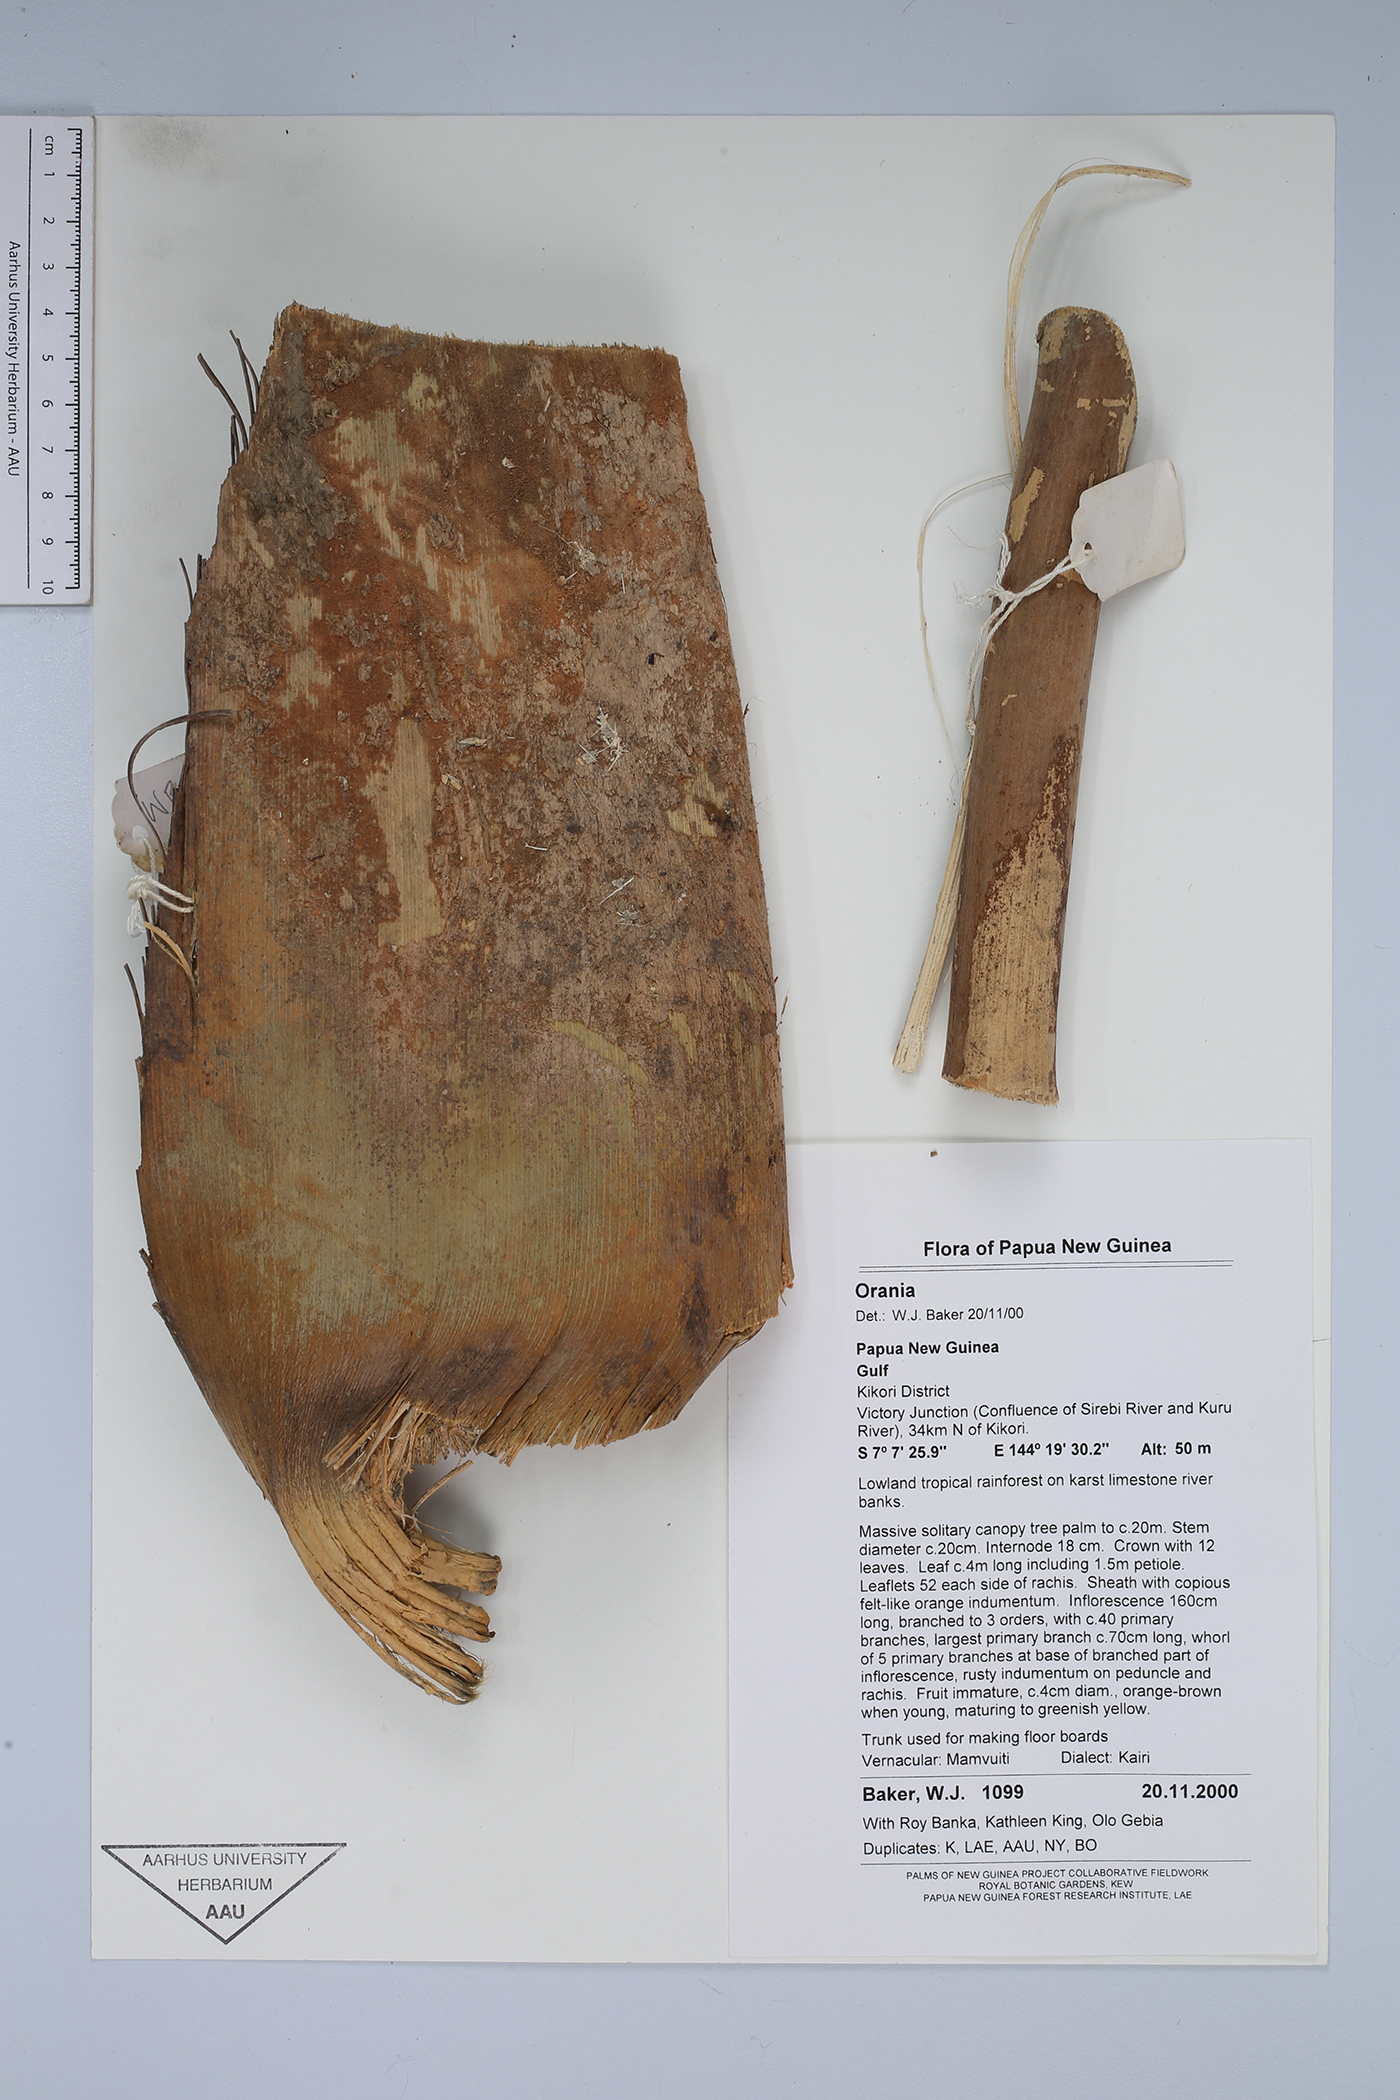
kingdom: Plantae
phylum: Tracheophyta
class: Liliopsida
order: Arecales
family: Arecaceae
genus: Orania
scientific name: Orania
